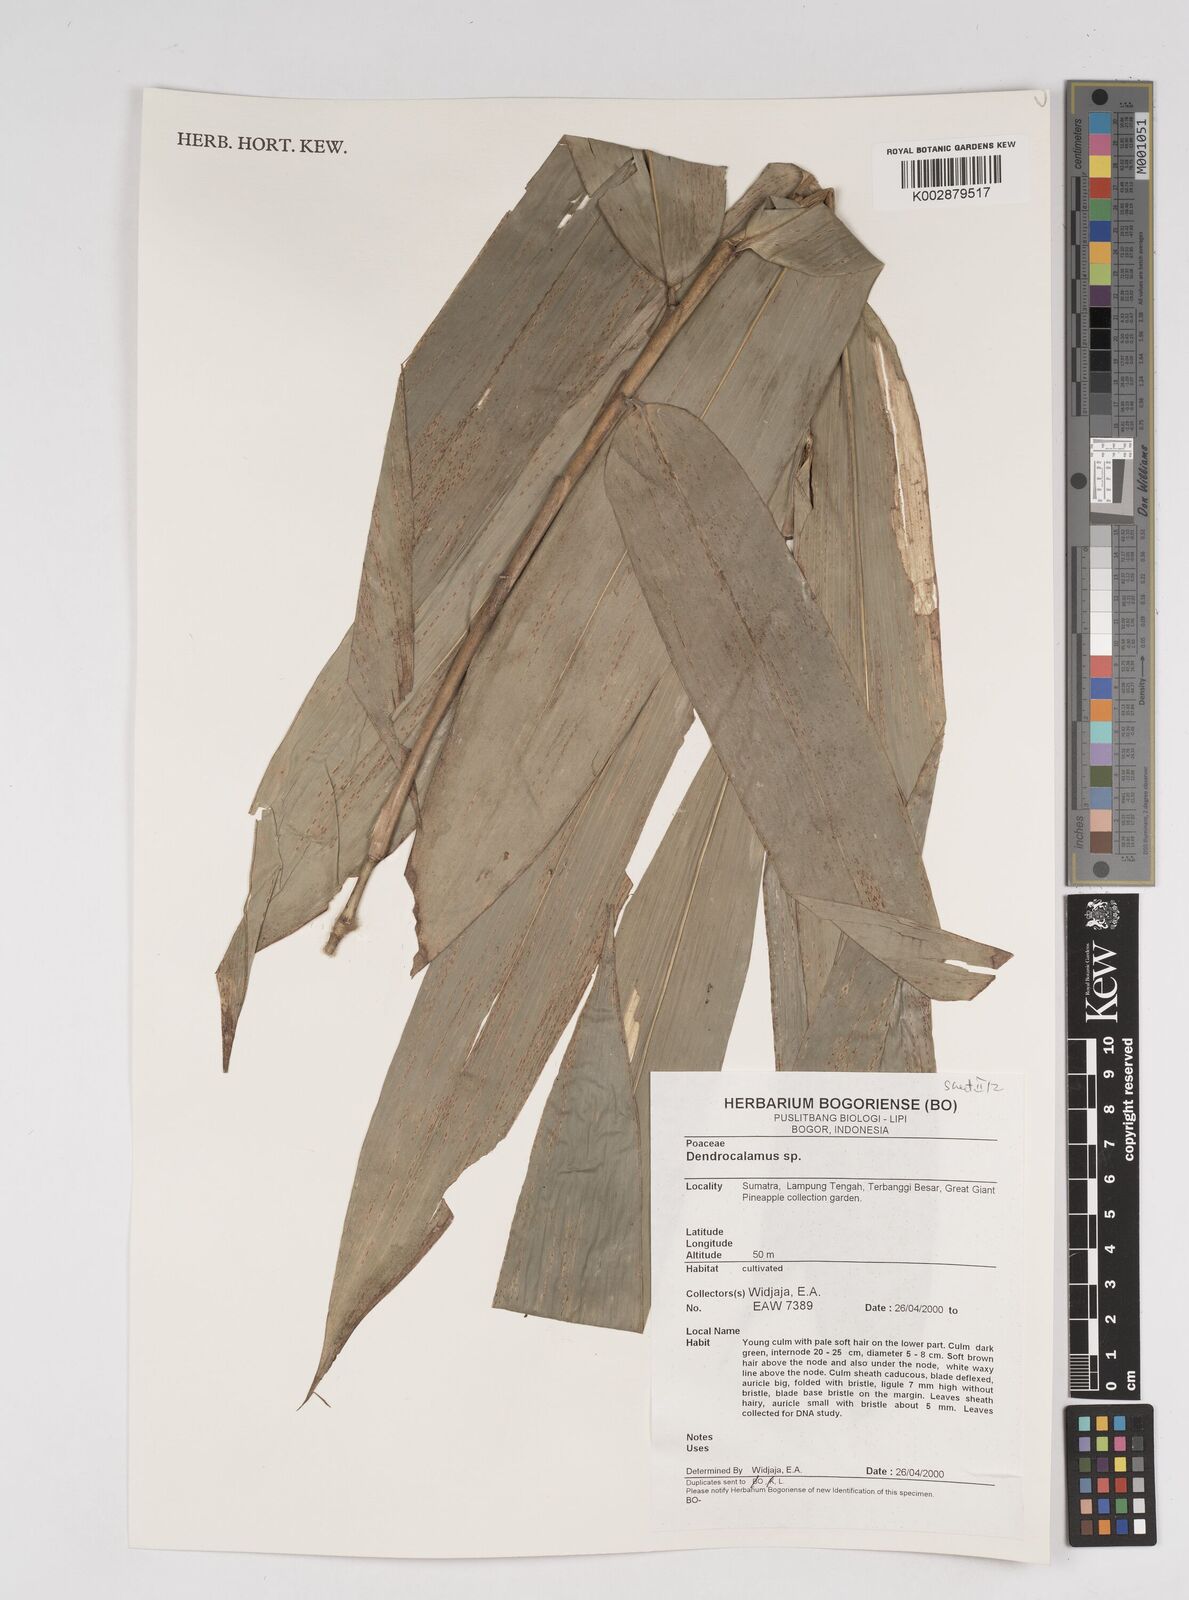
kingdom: Plantae
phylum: Tracheophyta
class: Liliopsida
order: Poales
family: Poaceae
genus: Dendrocalamus
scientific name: Dendrocalamus
